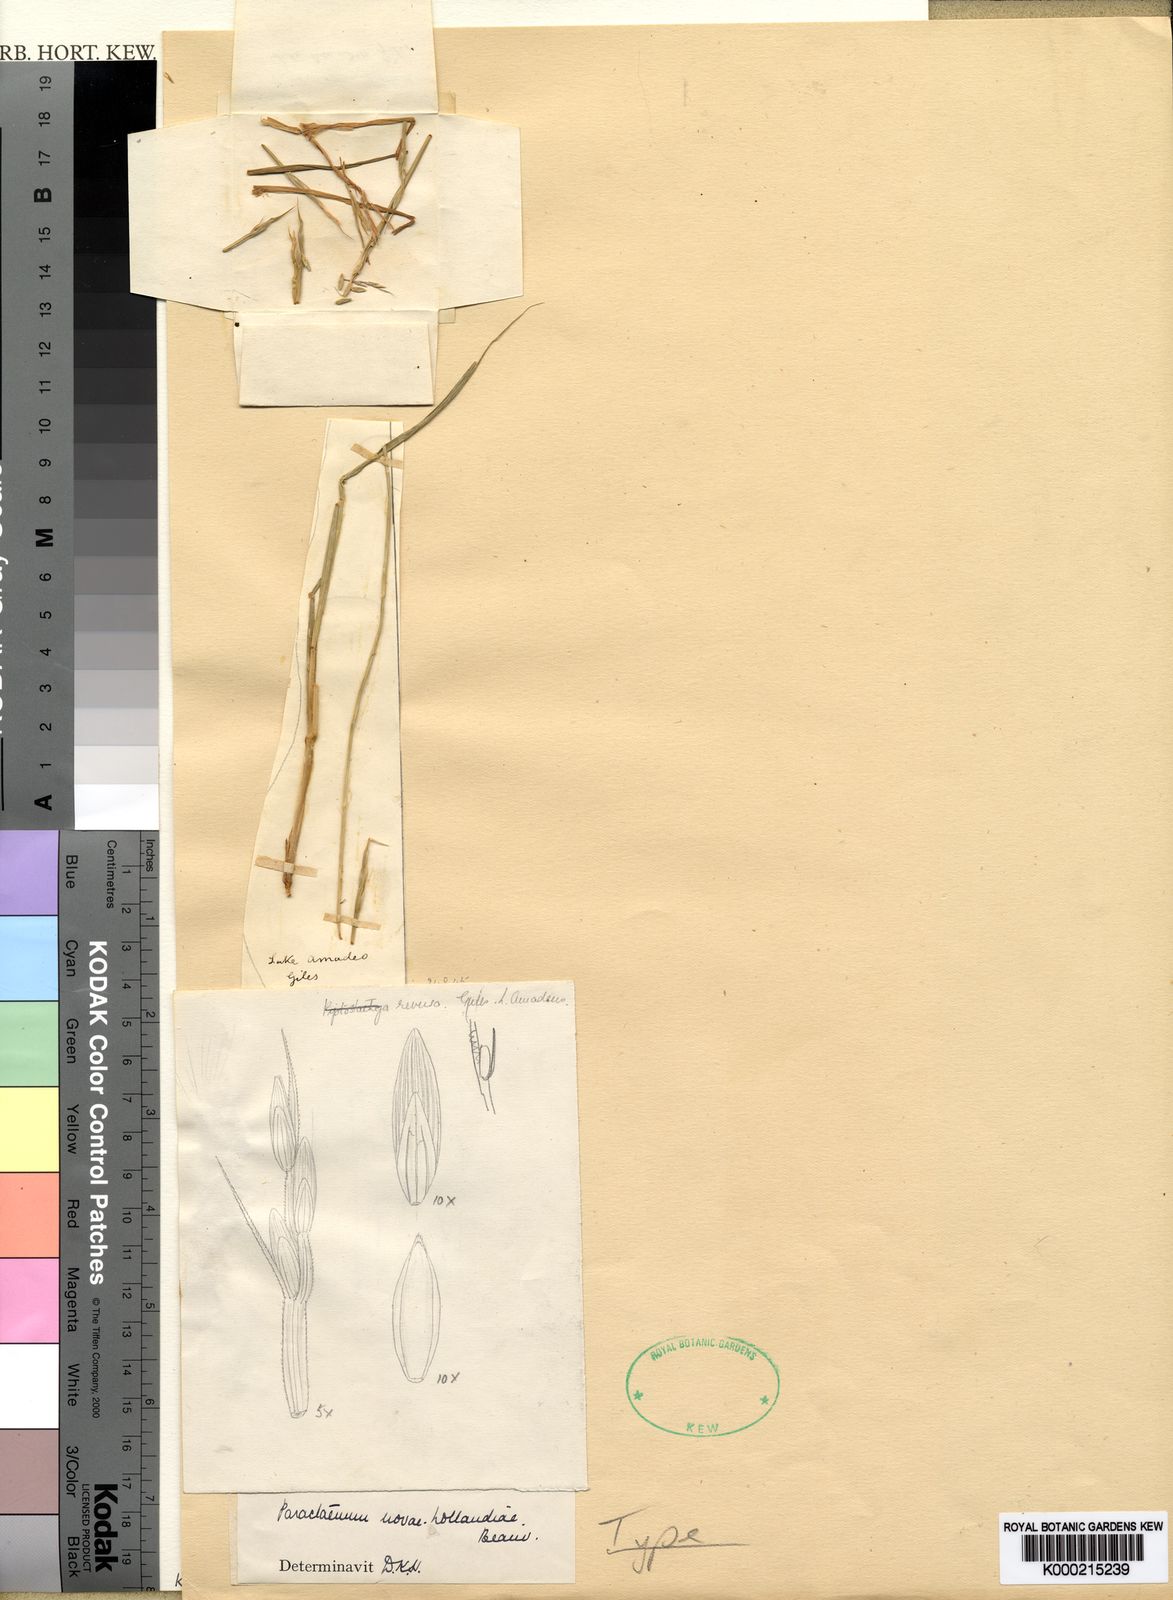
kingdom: Plantae
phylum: Tracheophyta
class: Liliopsida
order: Poales
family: Poaceae
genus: Paractaenum
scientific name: Paractaenum novae-hollandiae
